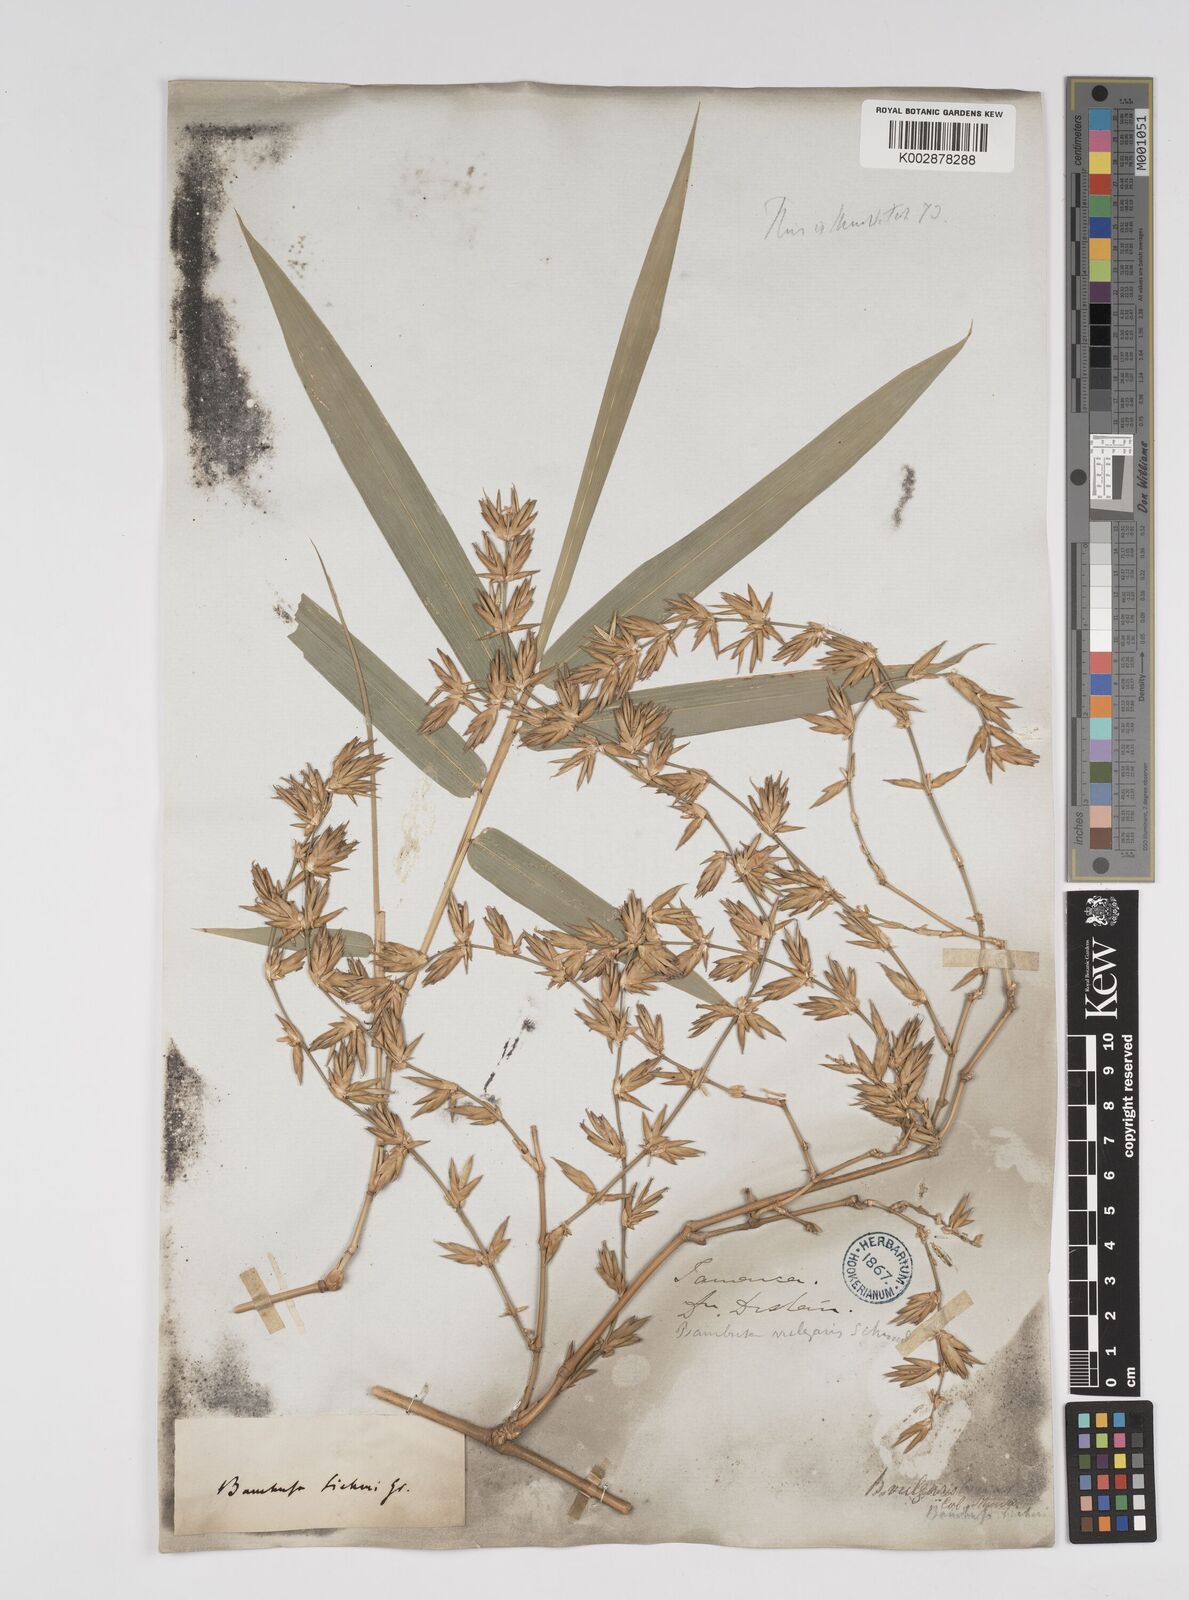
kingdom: Plantae
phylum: Tracheophyta
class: Liliopsida
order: Poales
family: Poaceae
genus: Bambusa
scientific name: Bambusa vulgaris
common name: Common bamboo
